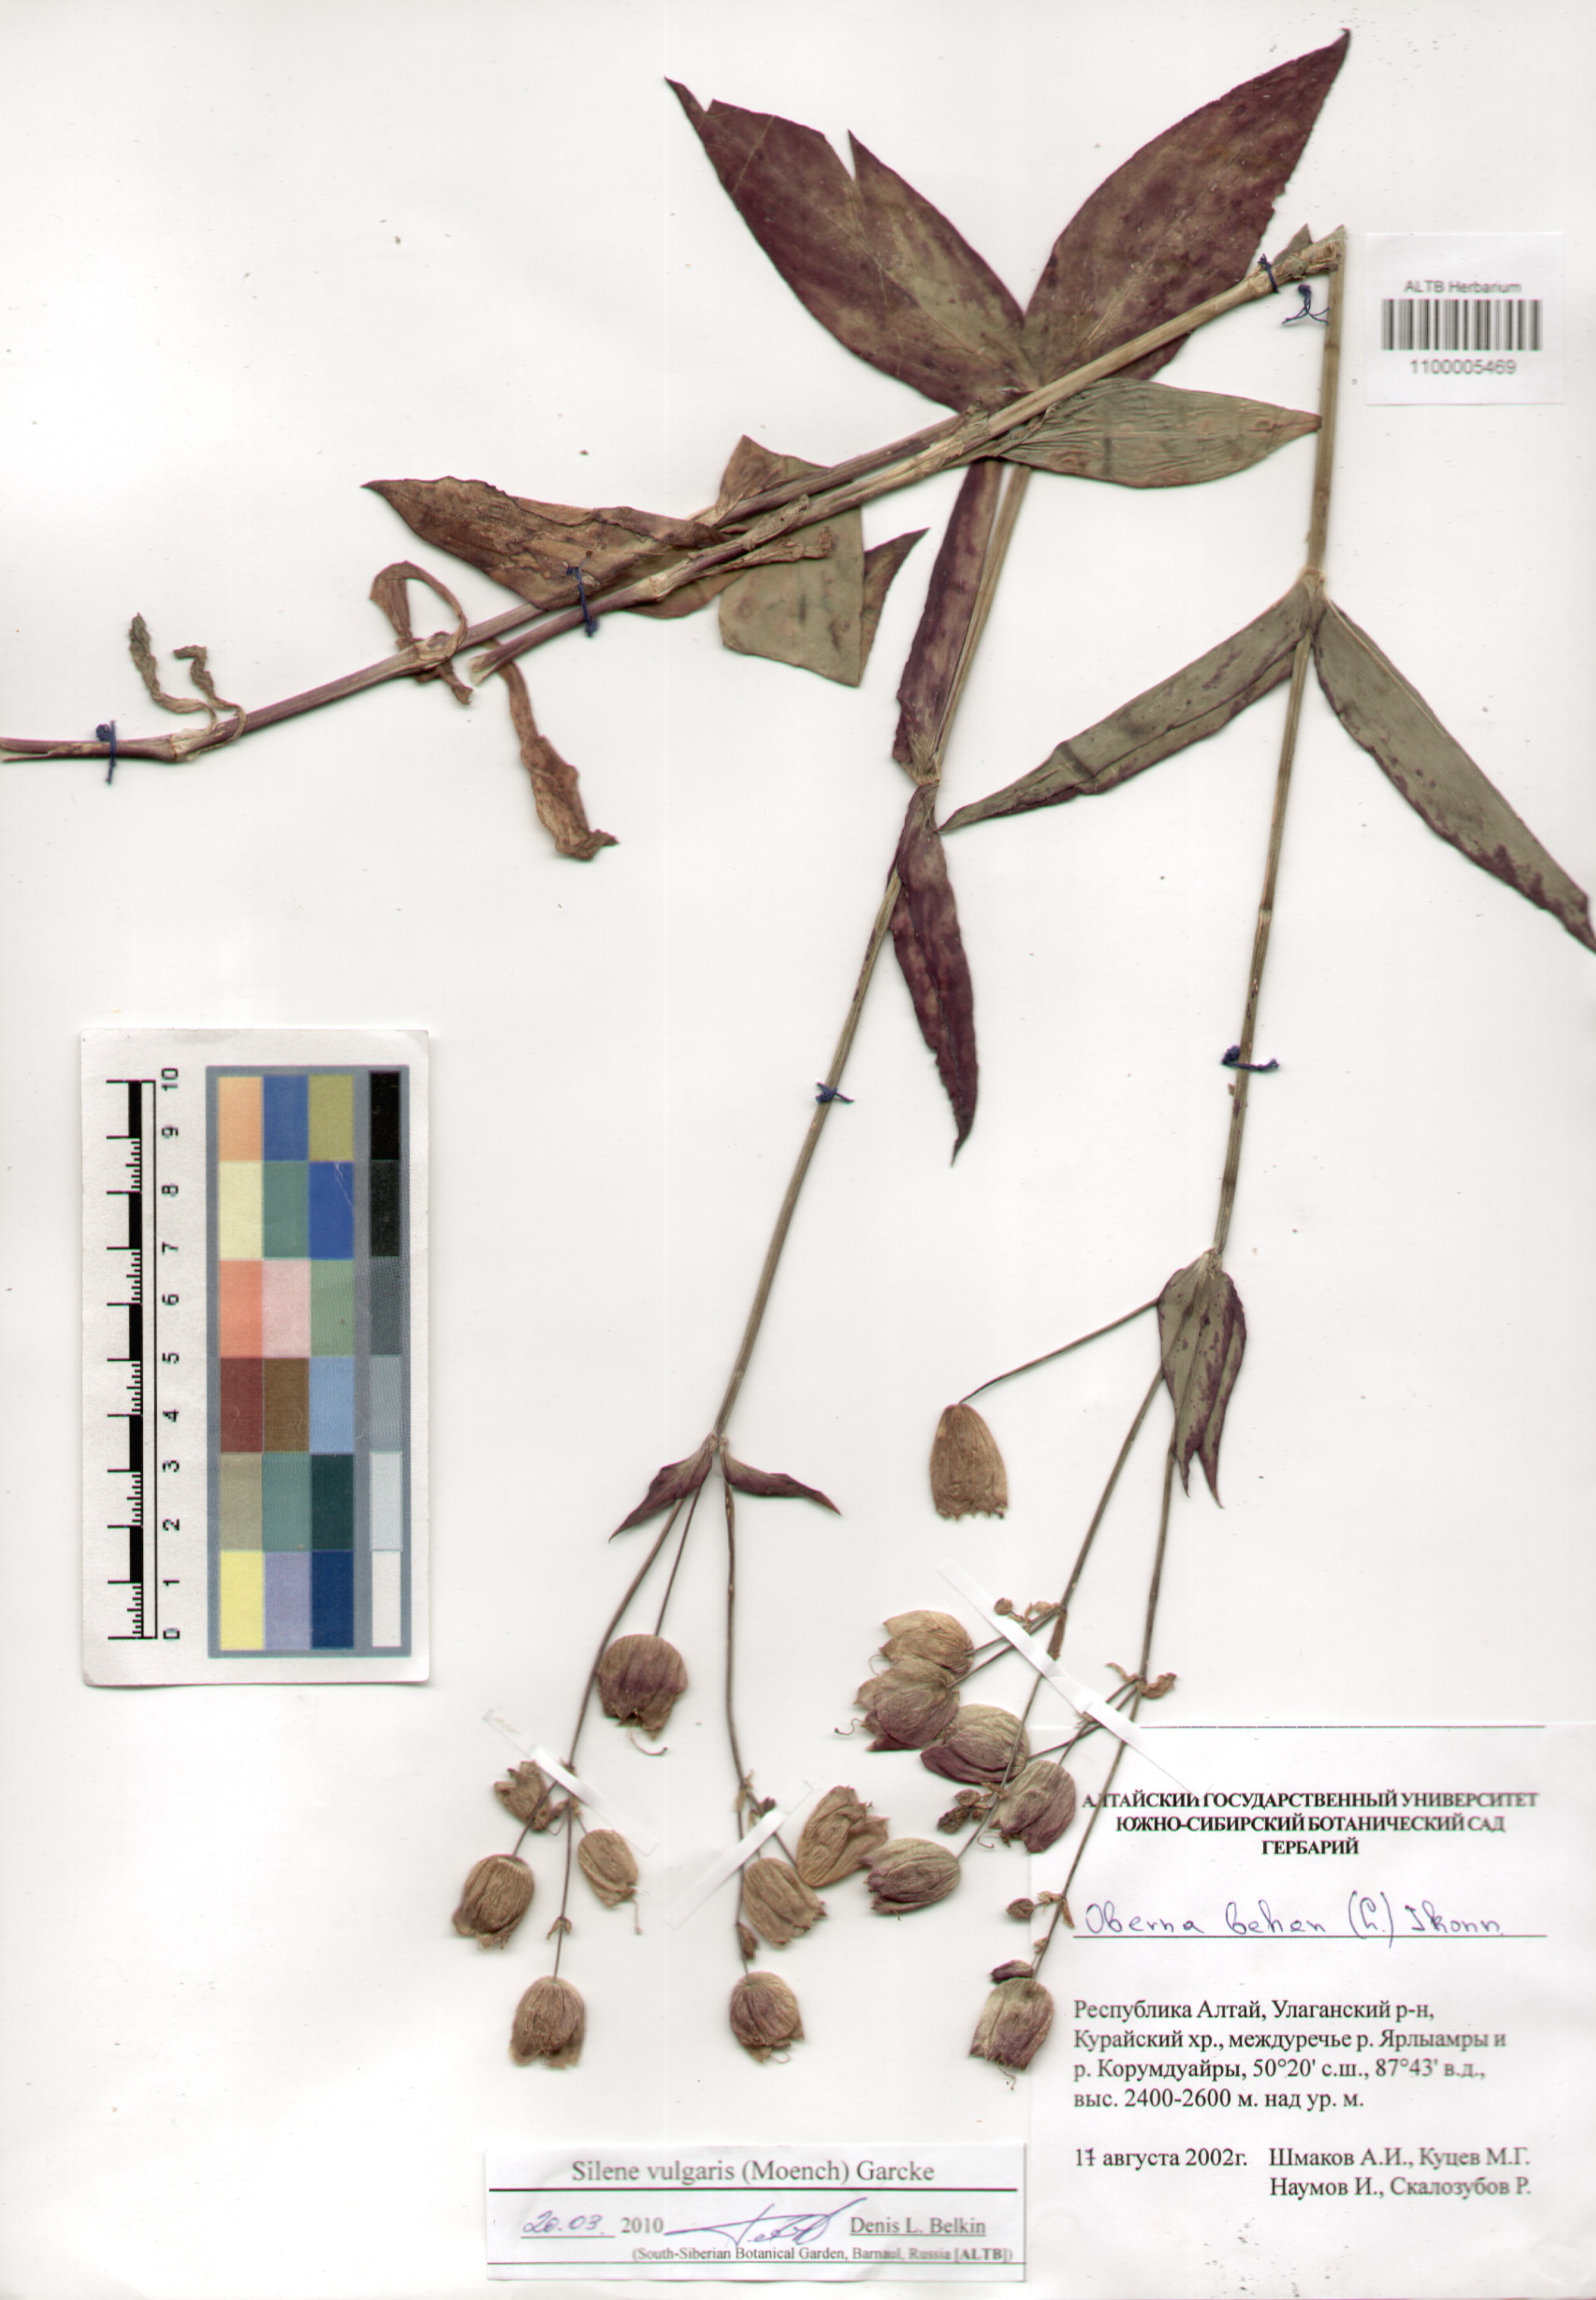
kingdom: Plantae
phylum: Tracheophyta
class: Magnoliopsida
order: Caryophyllales
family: Caryophyllaceae
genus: Silene
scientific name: Silene vulgaris
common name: Bladder campion
